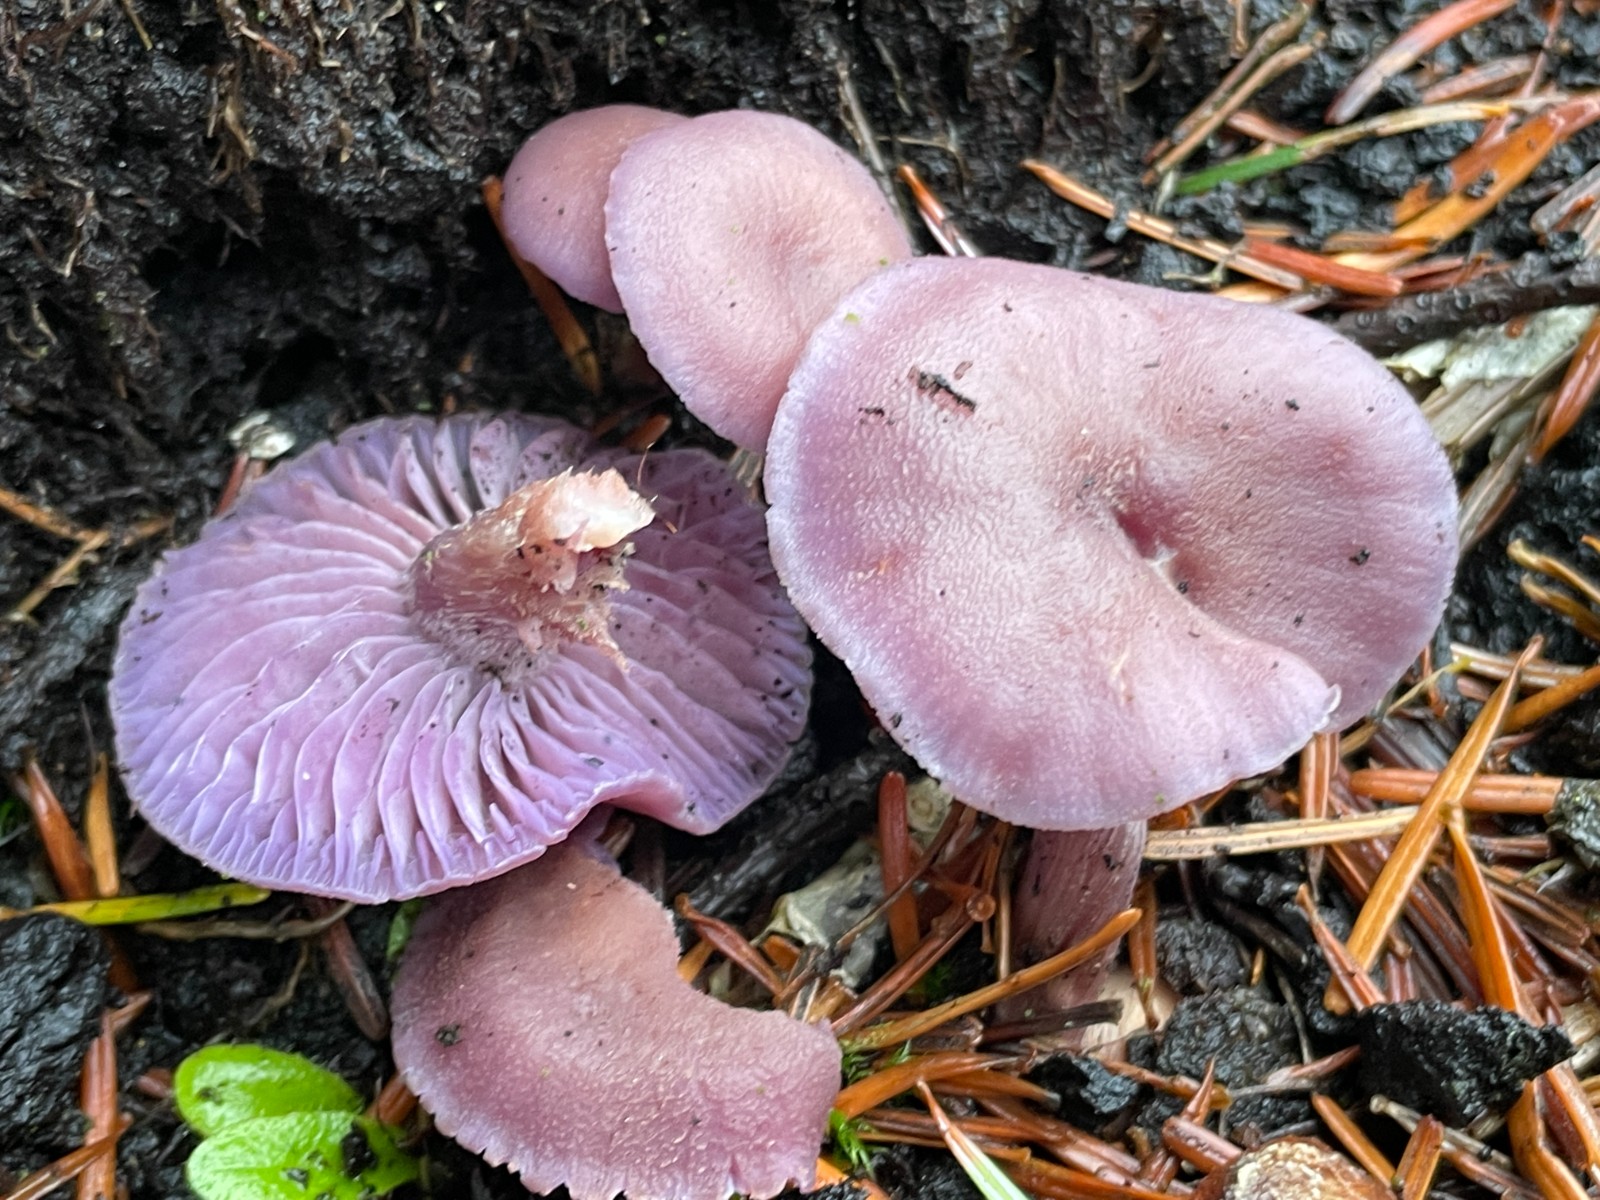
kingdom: Fungi
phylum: Basidiomycota
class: Agaricomycetes
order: Agaricales
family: Hydnangiaceae
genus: Laccaria
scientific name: Laccaria amethystina
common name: violet ametysthat
